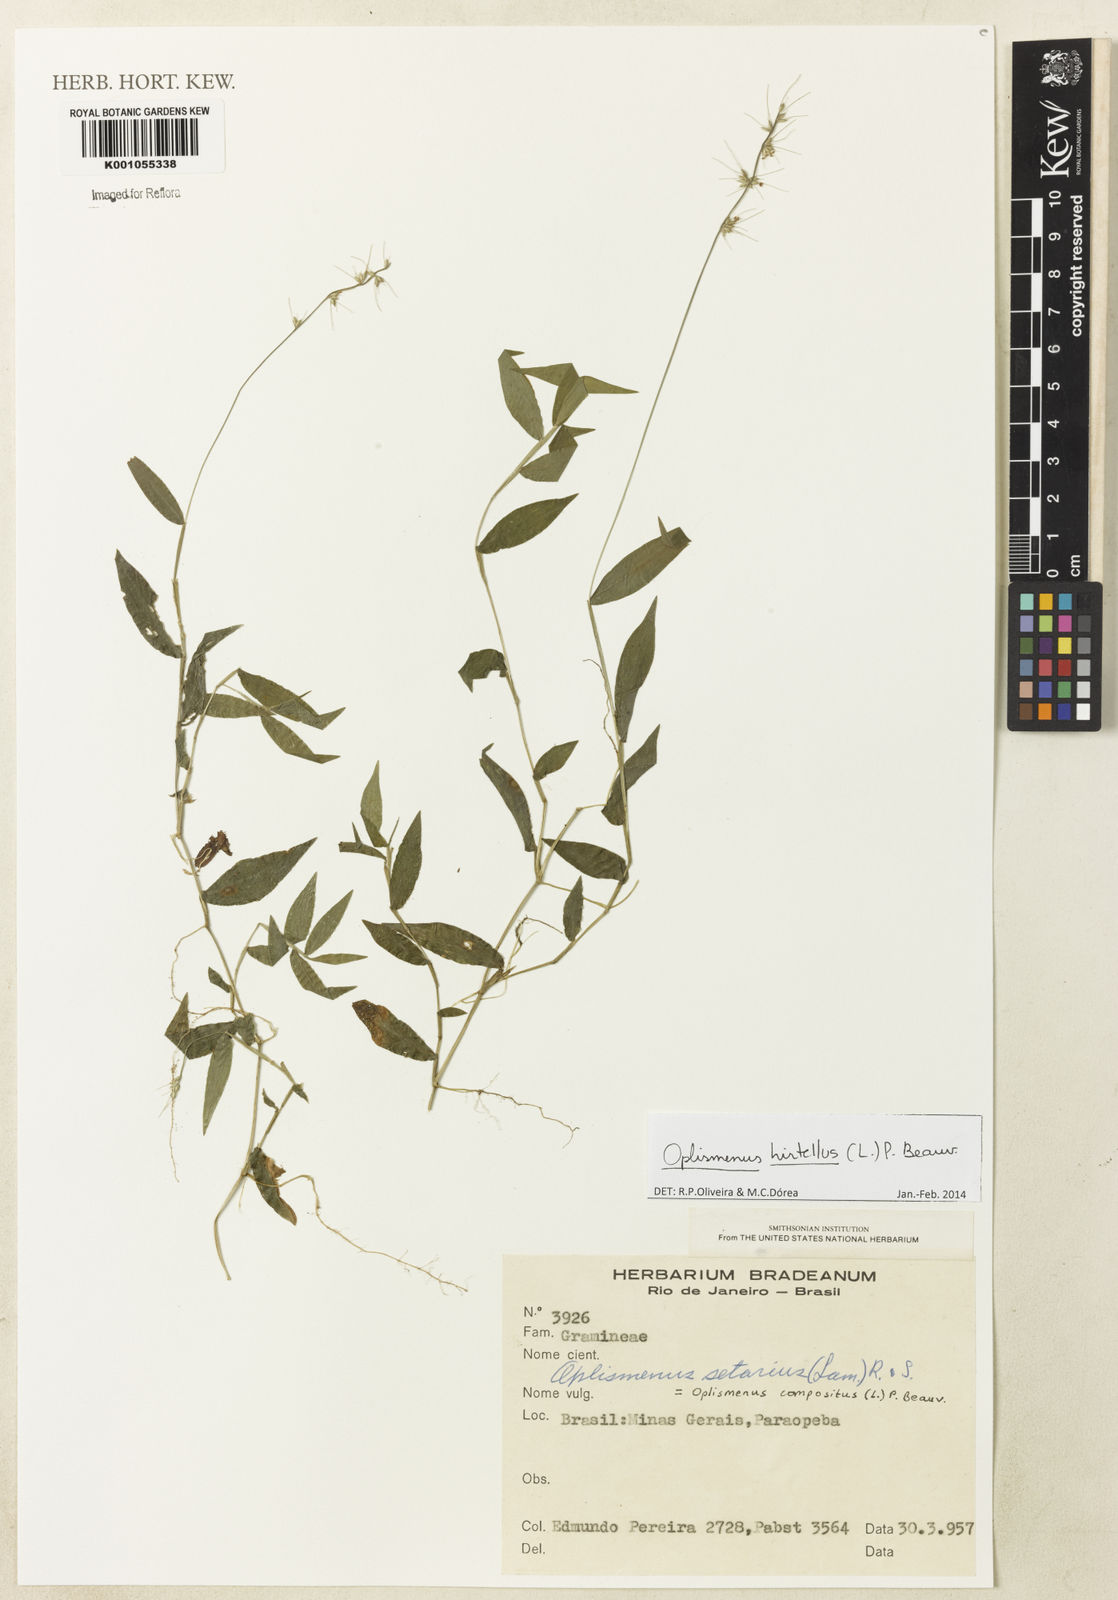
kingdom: Plantae
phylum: Tracheophyta
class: Liliopsida
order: Poales
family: Poaceae
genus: Oplismenus
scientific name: Oplismenus hirtellus
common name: Basketgrass
